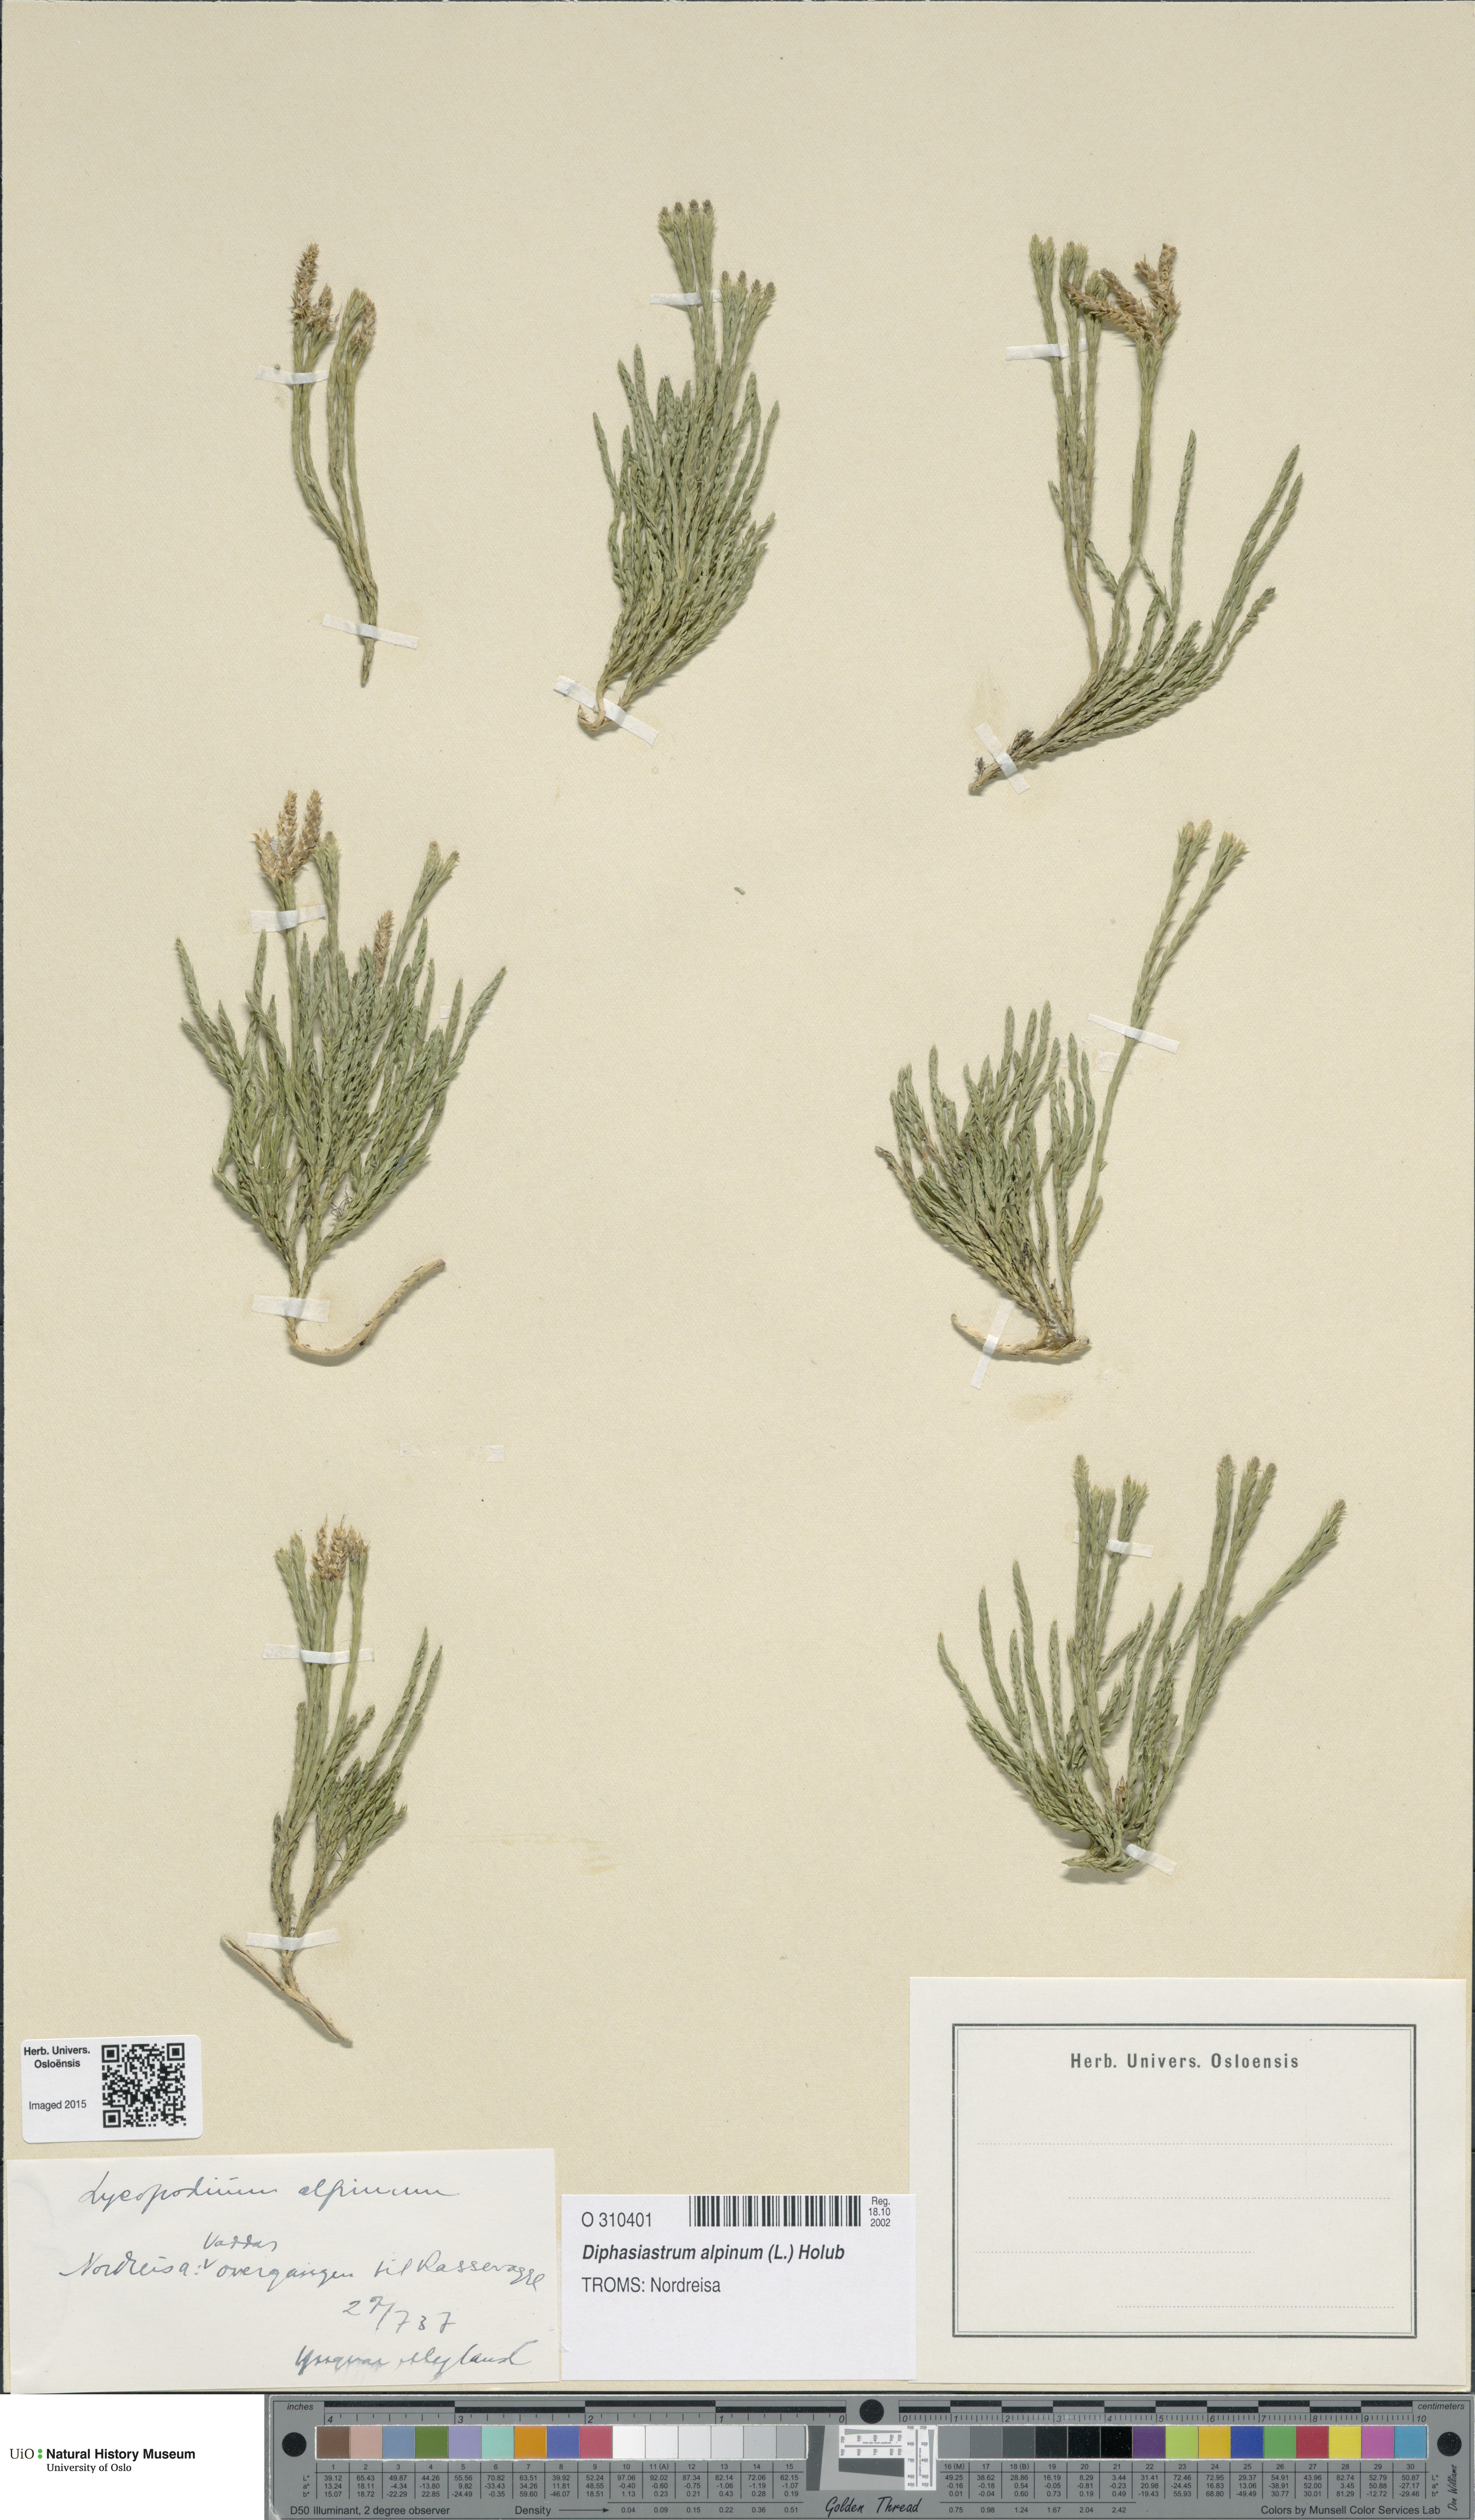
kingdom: Plantae
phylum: Tracheophyta
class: Lycopodiopsida
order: Lycopodiales
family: Lycopodiaceae
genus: Diphasiastrum
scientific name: Diphasiastrum alpinum
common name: Alpine clubmoss
